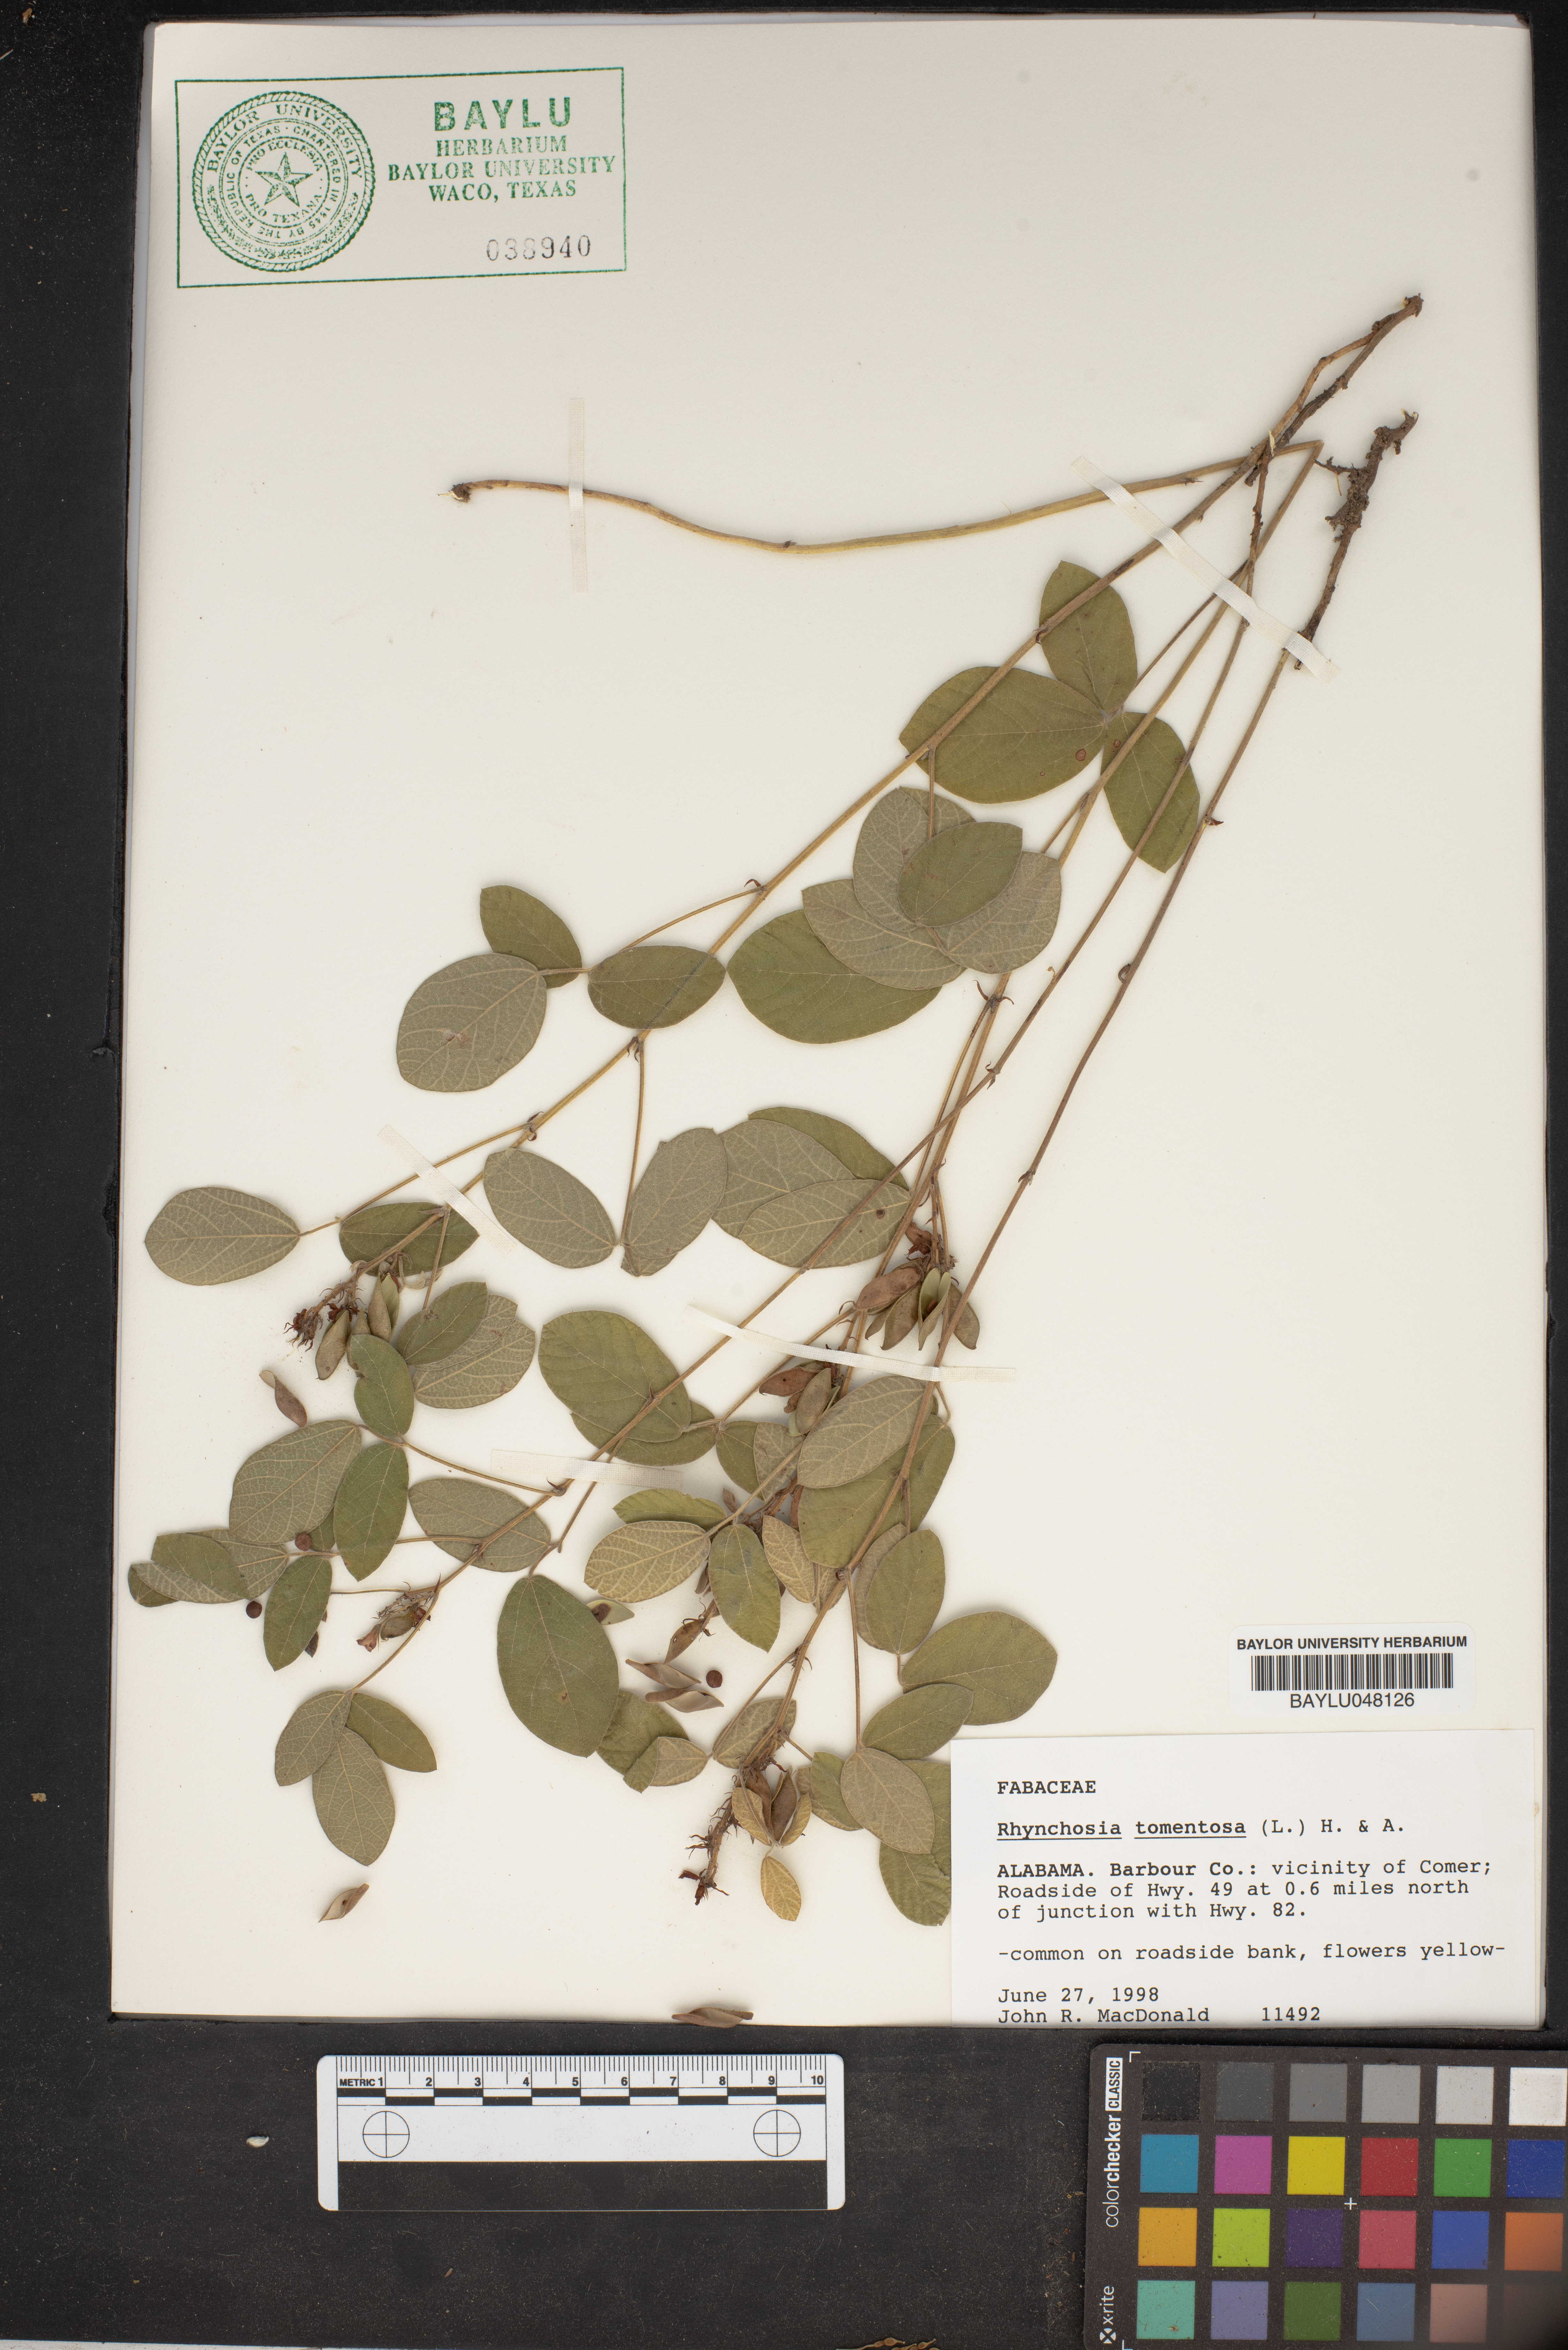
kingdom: Plantae
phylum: Tracheophyta
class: Magnoliopsida
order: Fabales
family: Fabaceae
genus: Rhynchosia
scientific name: Rhynchosia rothii
